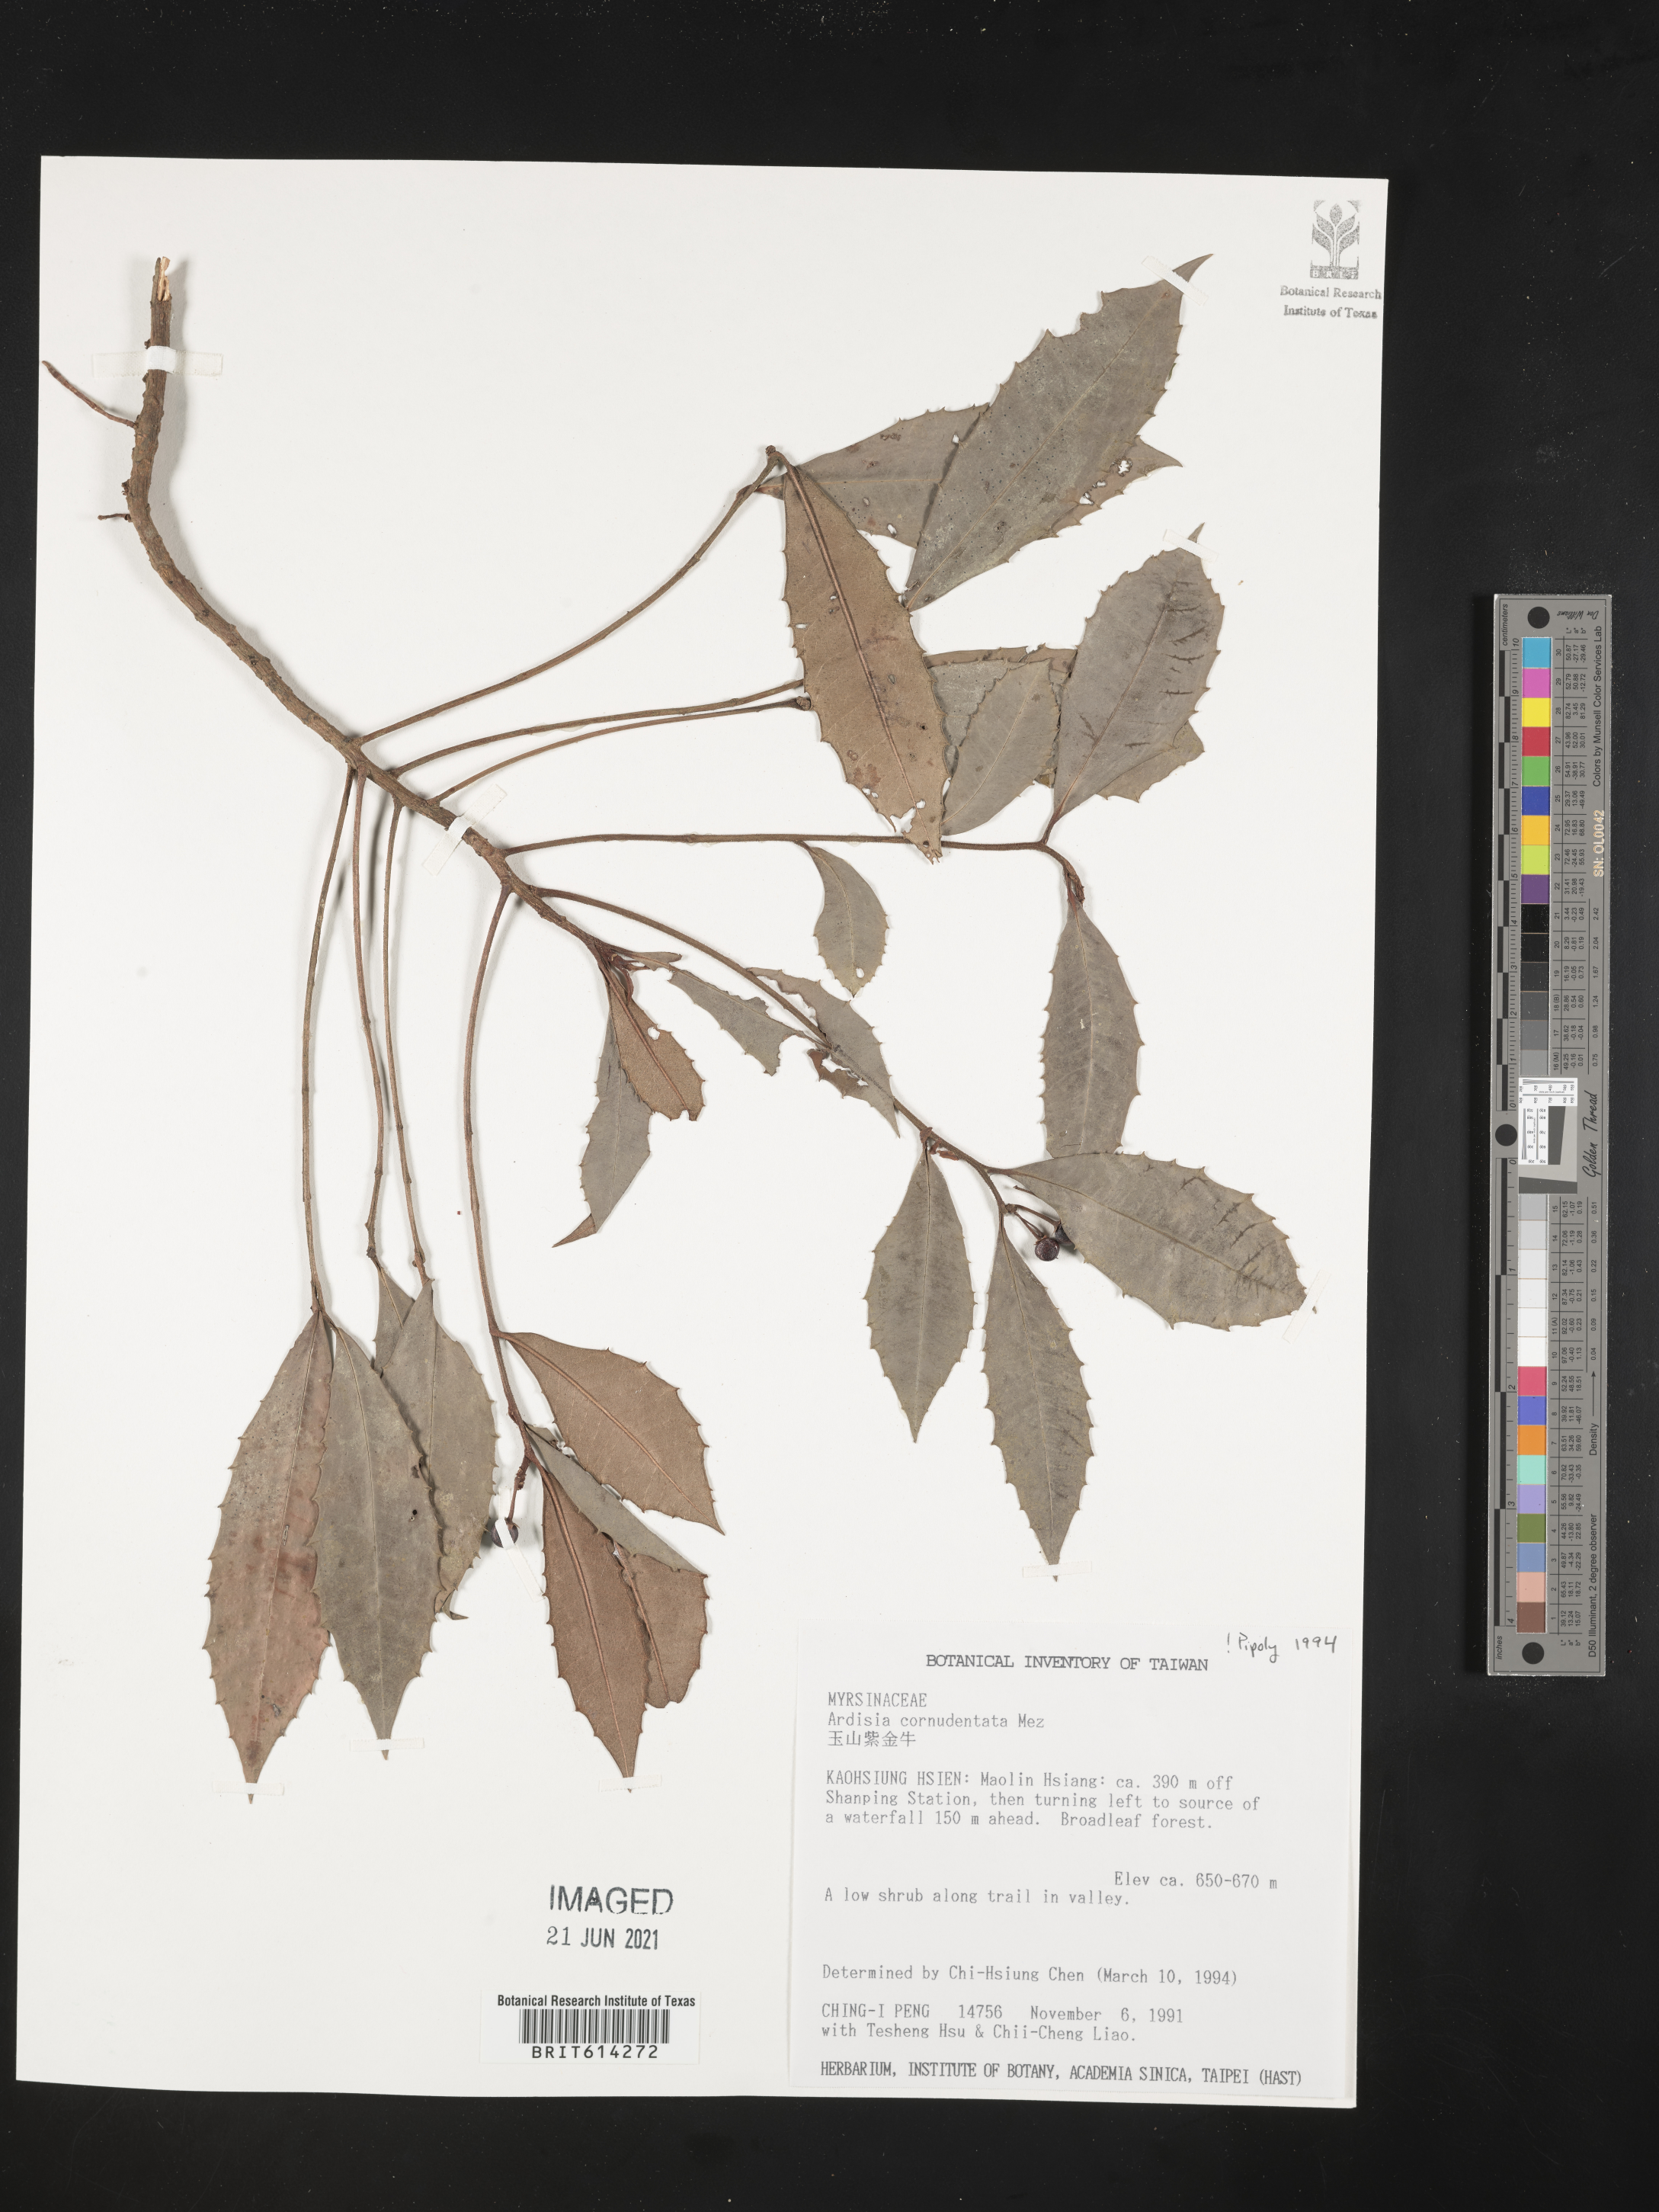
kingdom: Plantae
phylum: Tracheophyta
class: Magnoliopsida
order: Ericales
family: Primulaceae
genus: Ardisia
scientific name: Ardisia cornudentata
